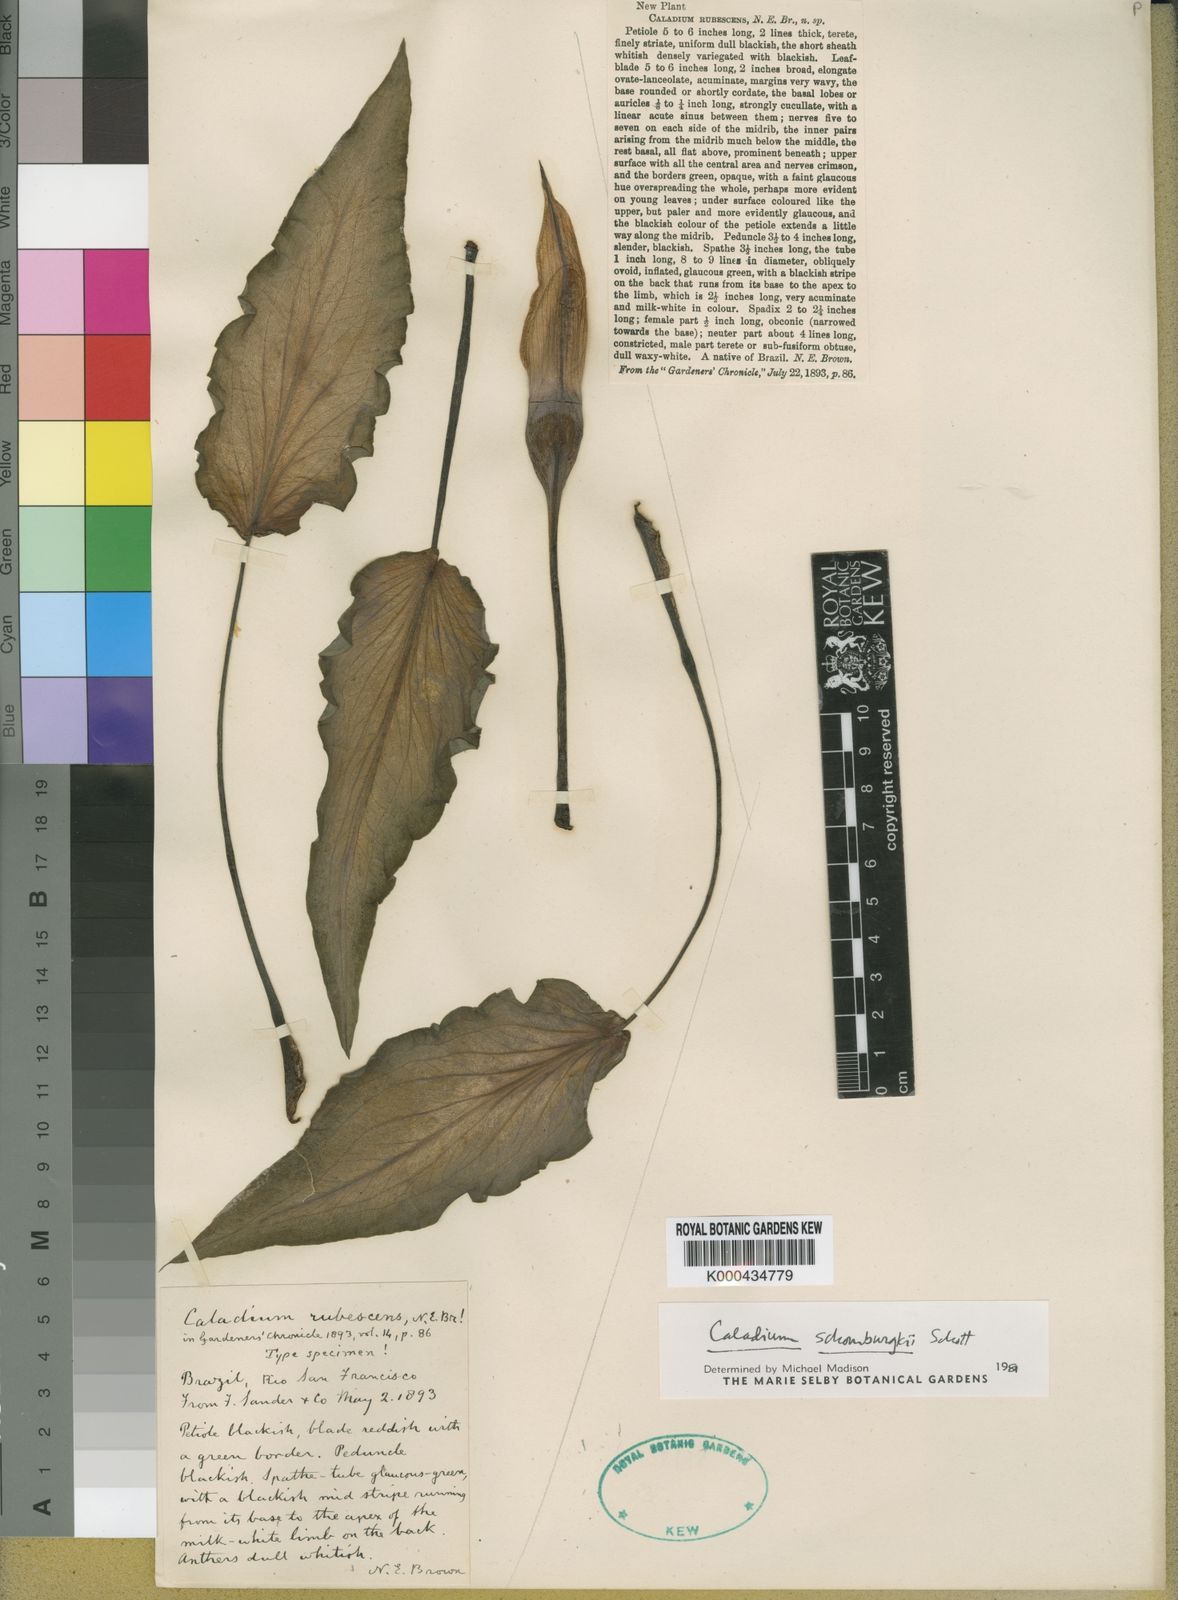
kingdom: Plantae
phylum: Tracheophyta
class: Liliopsida
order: Alismatales
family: Araceae
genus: Caladium
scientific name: Caladium schomburgkii
